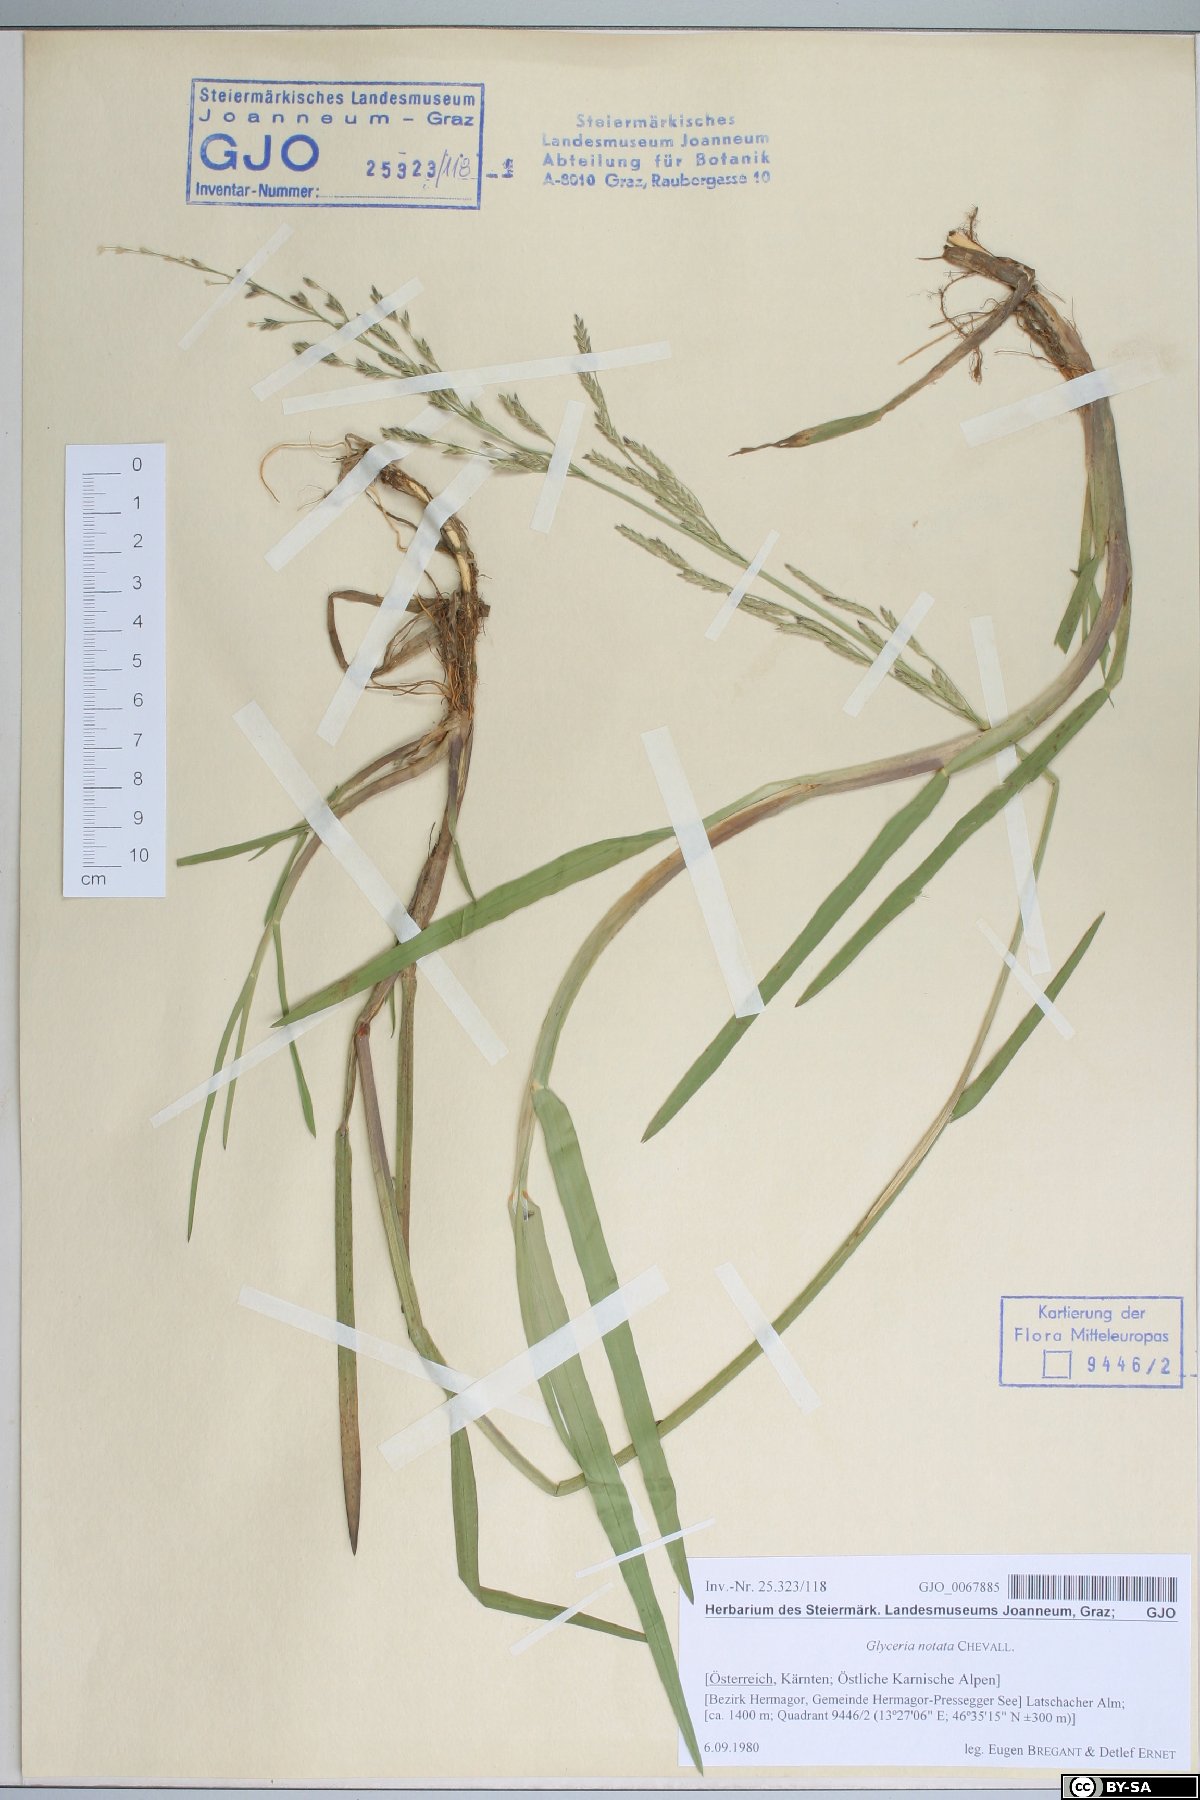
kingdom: Plantae
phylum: Tracheophyta
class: Liliopsida
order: Poales
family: Poaceae
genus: Glyceria
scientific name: Glyceria notata
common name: Plicate sweet-grass
